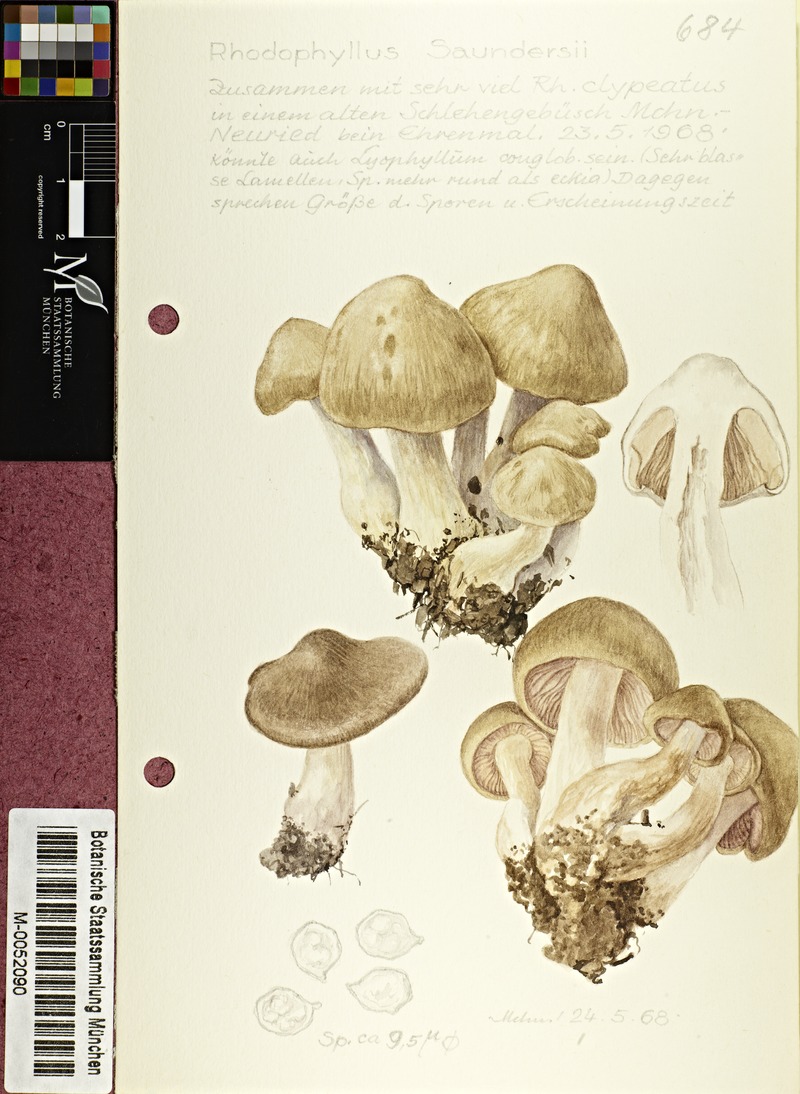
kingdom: Fungi
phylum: Basidiomycota
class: Agaricomycetes
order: Agaricales
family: Entolomataceae
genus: Entoloma
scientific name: Entoloma saundersii
